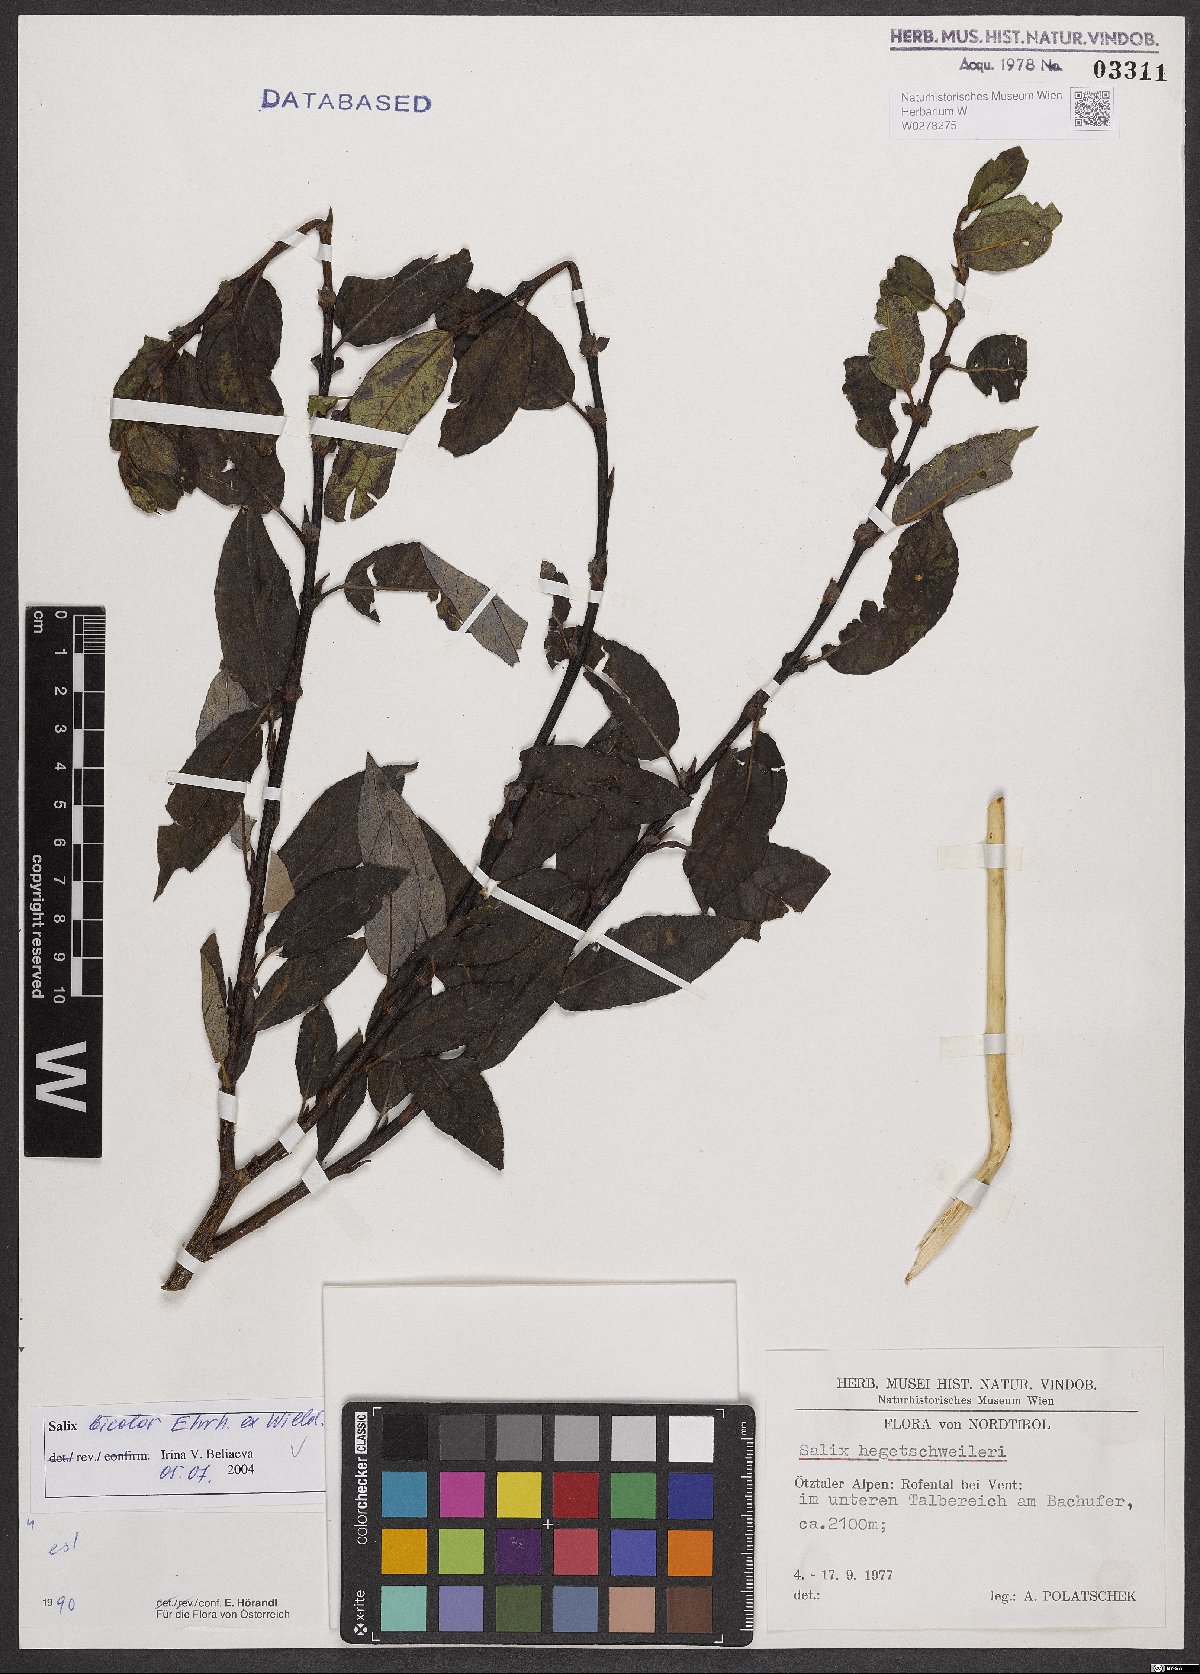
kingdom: Plantae
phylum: Tracheophyta
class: Magnoliopsida
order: Malpighiales
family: Salicaceae
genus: Salix
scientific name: Salix bicolor
